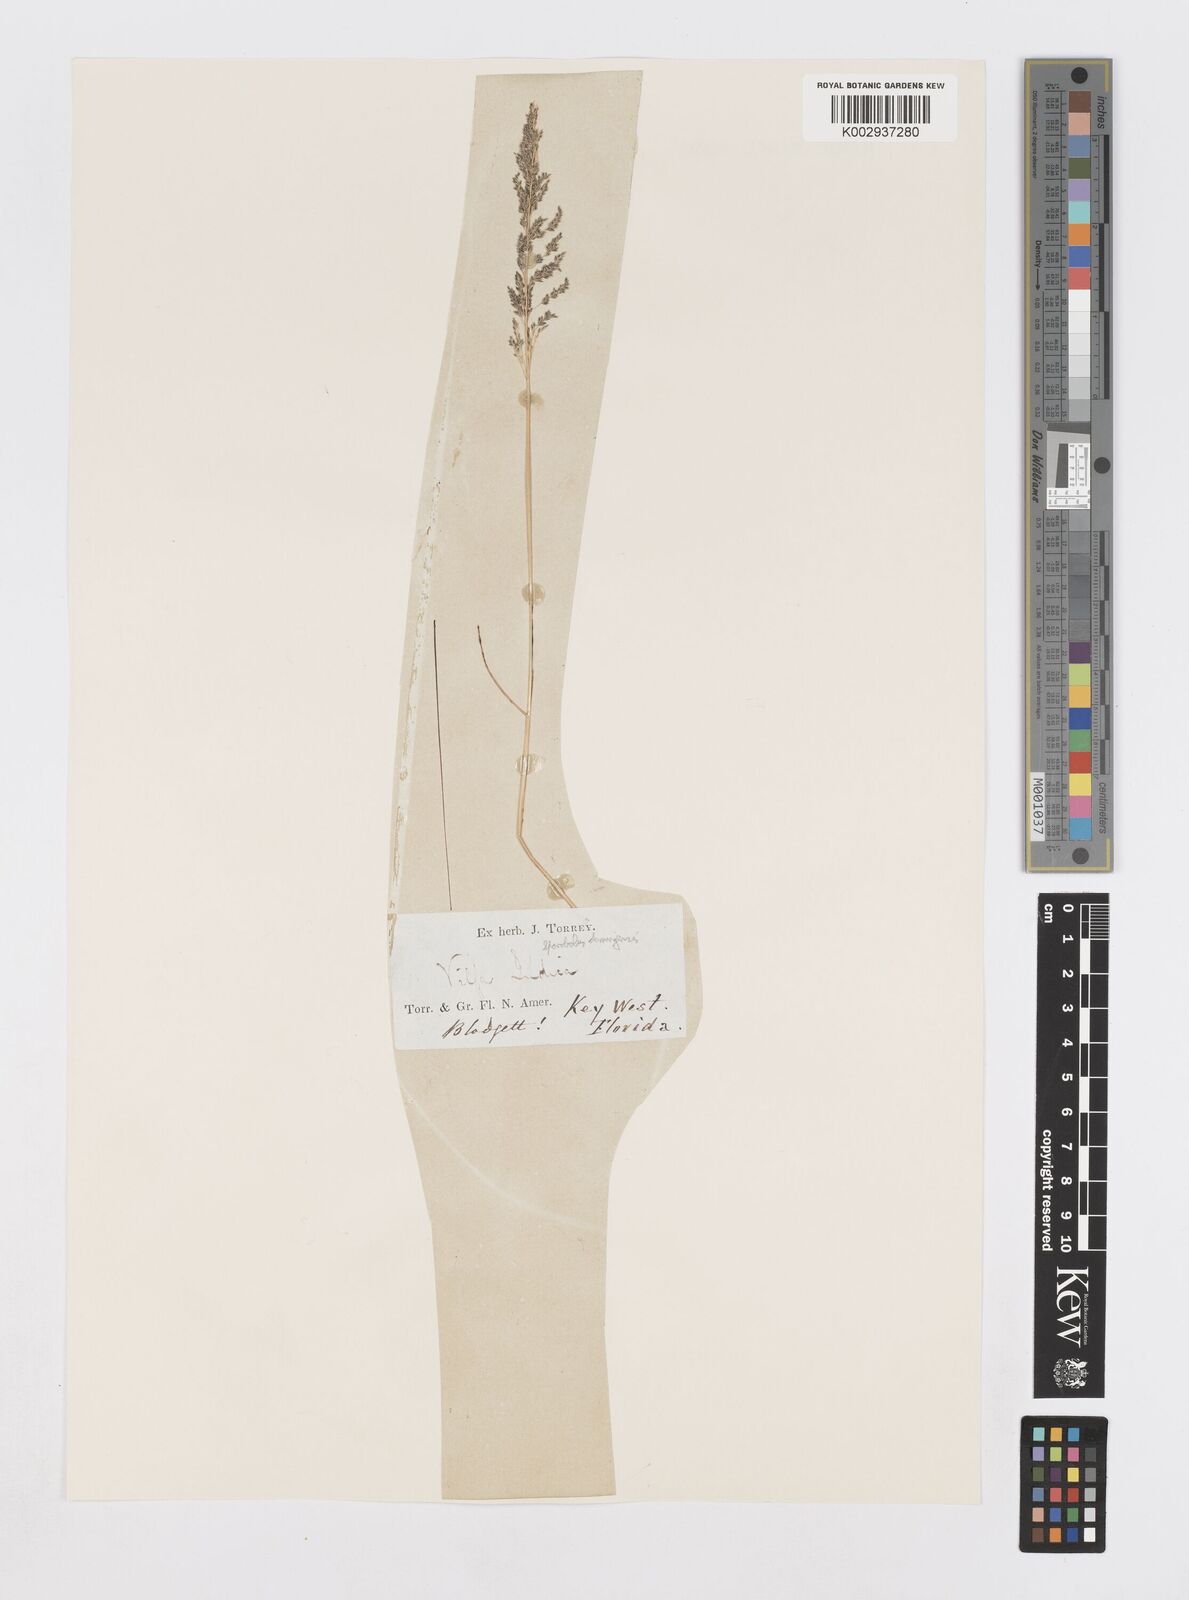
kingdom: Plantae
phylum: Tracheophyta
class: Liliopsida
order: Poales
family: Poaceae
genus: Sporobolus
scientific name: Sporobolus domingensis
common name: Coral dropseed
